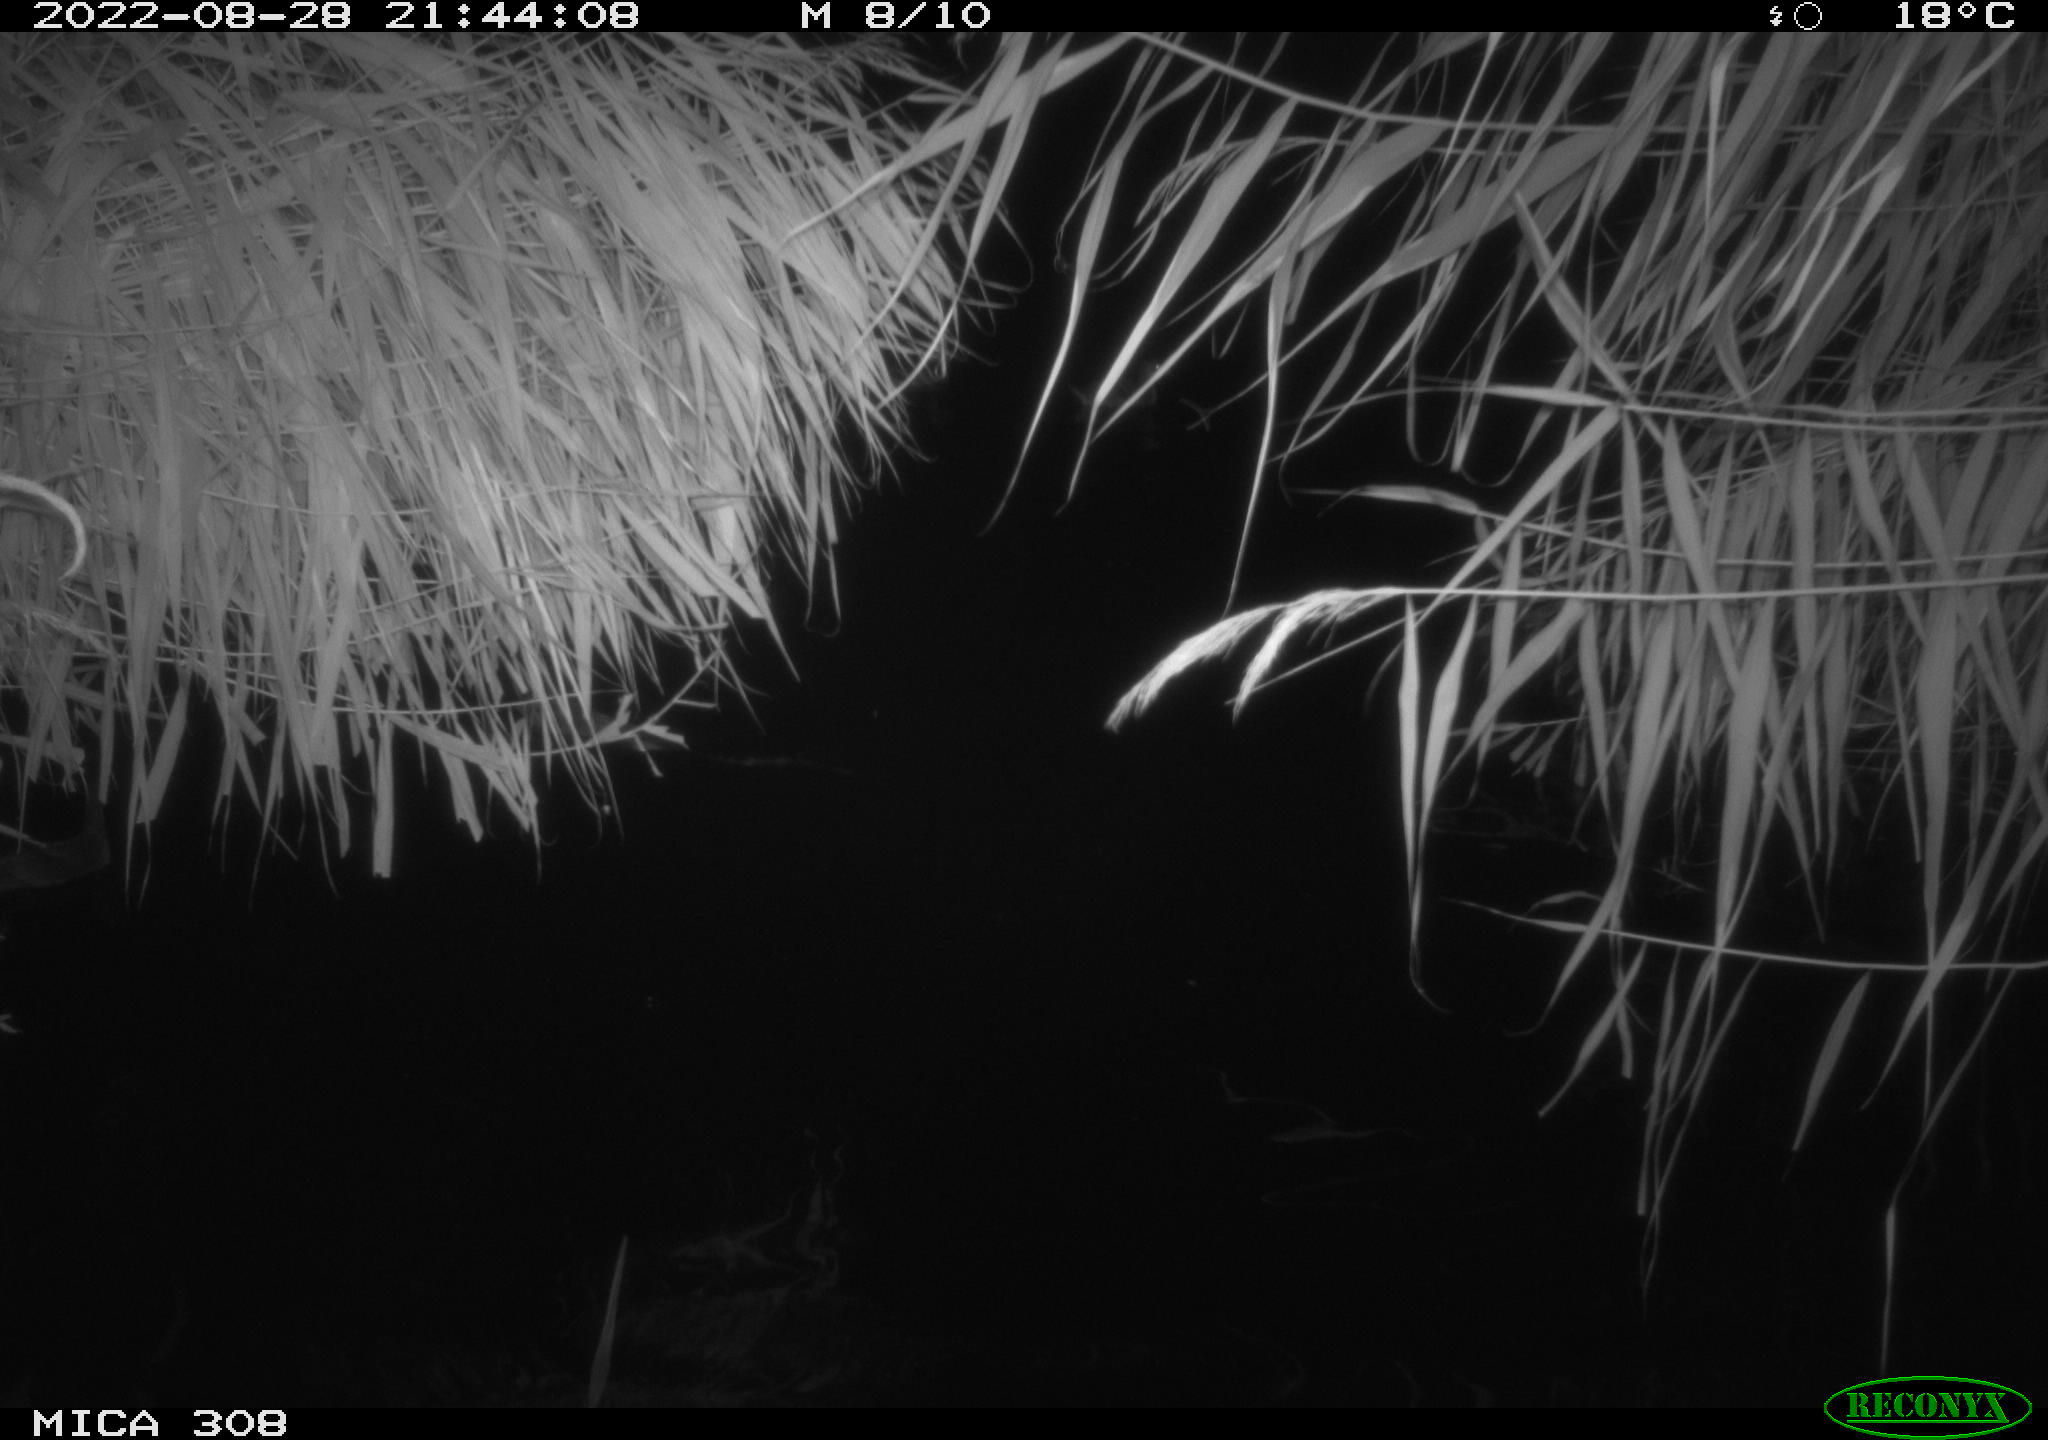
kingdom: Animalia
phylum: Chordata
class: Aves
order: Gruiformes
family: Rallidae
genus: Gallinula
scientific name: Gallinula chloropus
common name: Common moorhen
